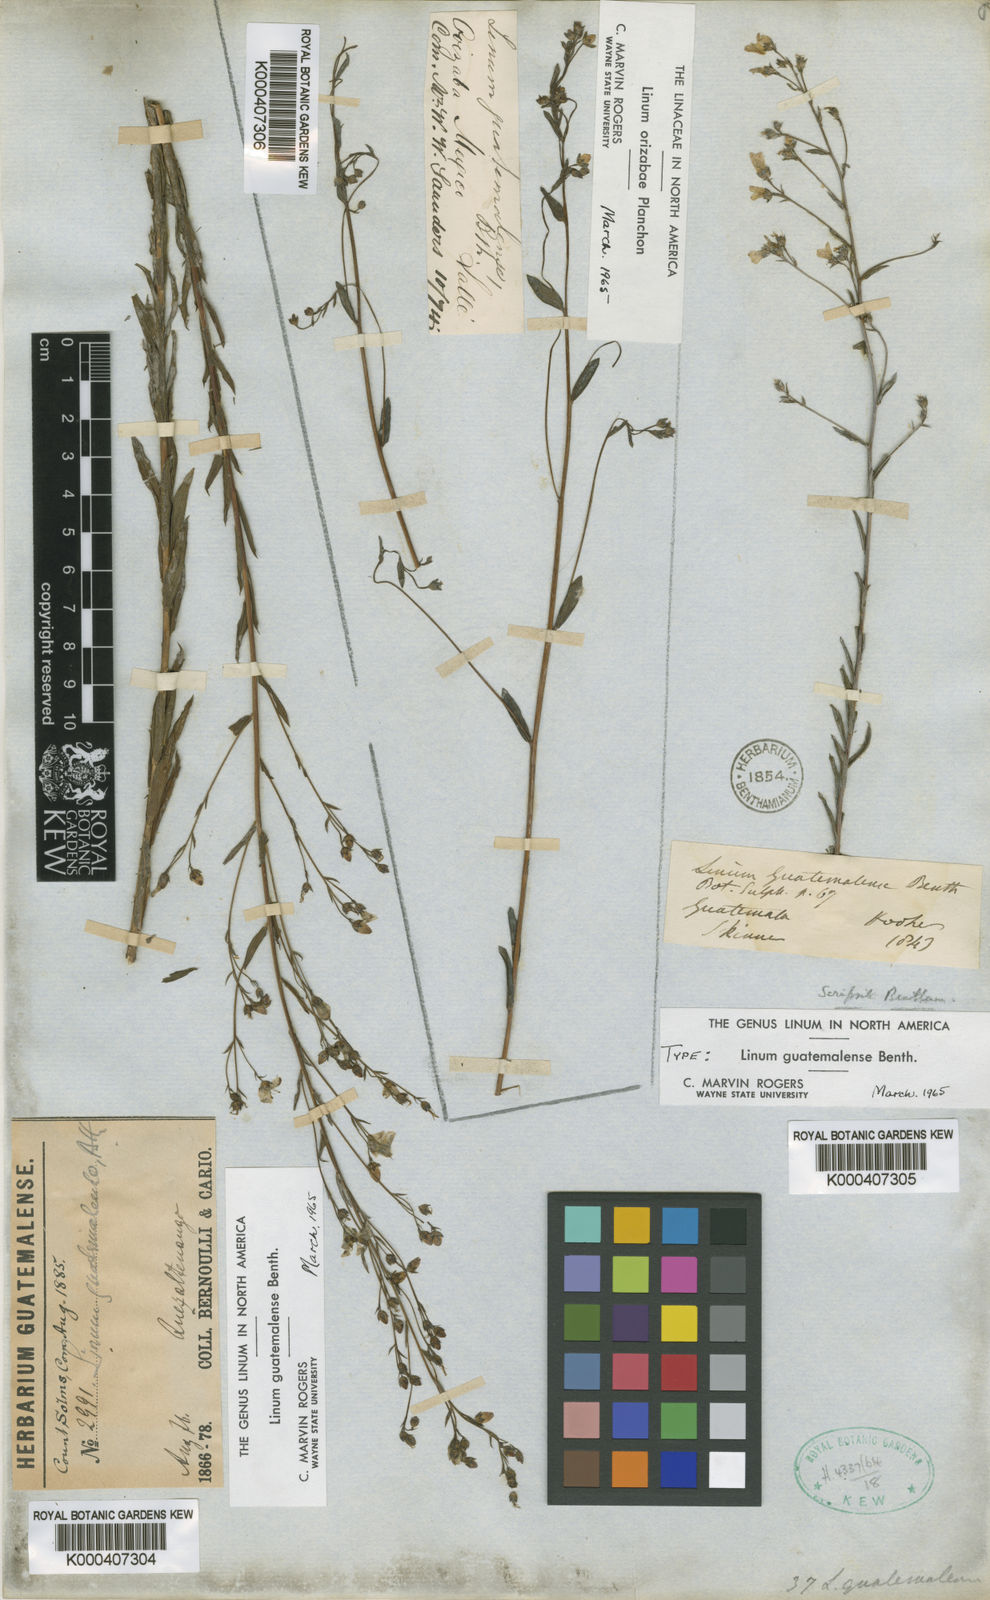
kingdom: Plantae
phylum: Tracheophyta
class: Magnoliopsida
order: Malpighiales
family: Linaceae
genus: Linum
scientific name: Linum guatemalense
